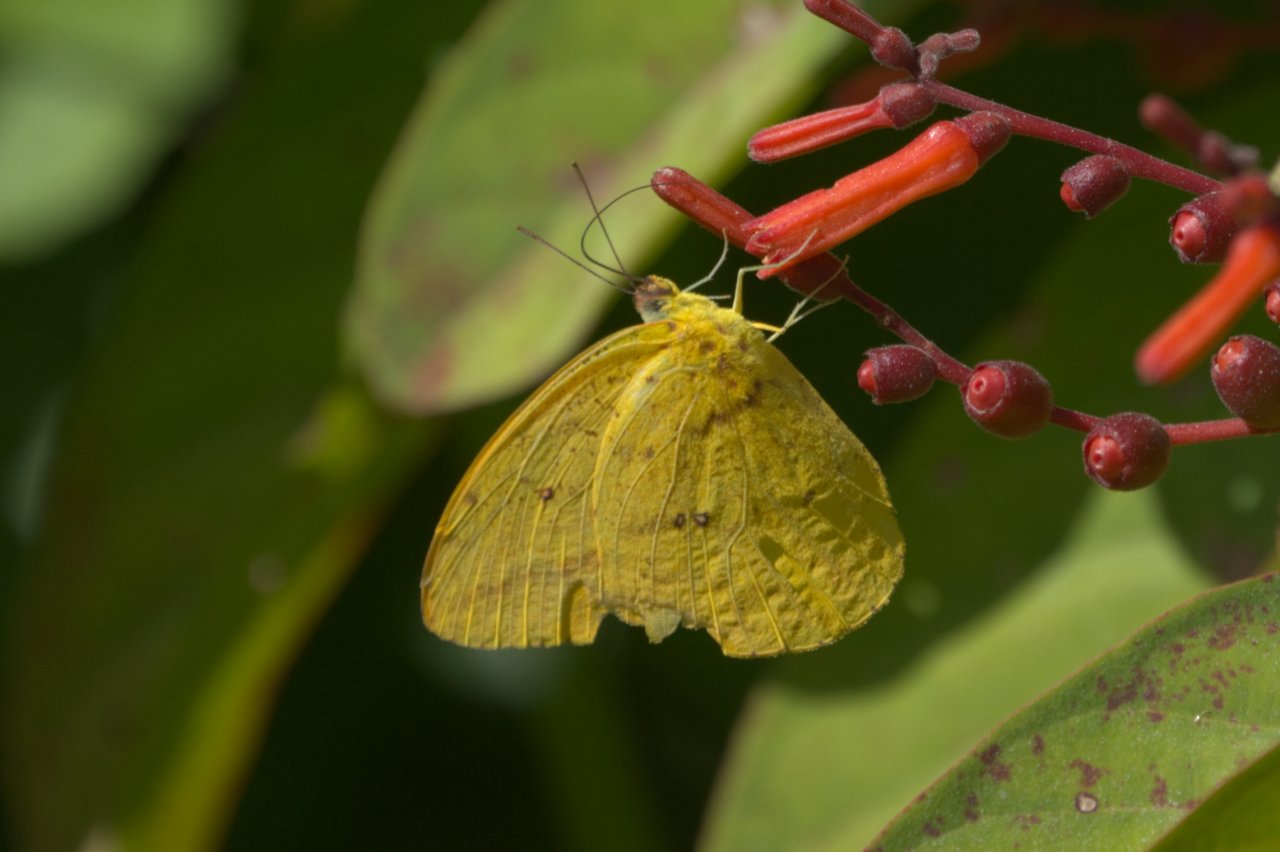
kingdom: Animalia
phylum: Arthropoda
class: Insecta
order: Lepidoptera
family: Pieridae
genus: Phoebis
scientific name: Phoebis agarithe
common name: Large Orange Sulphur
